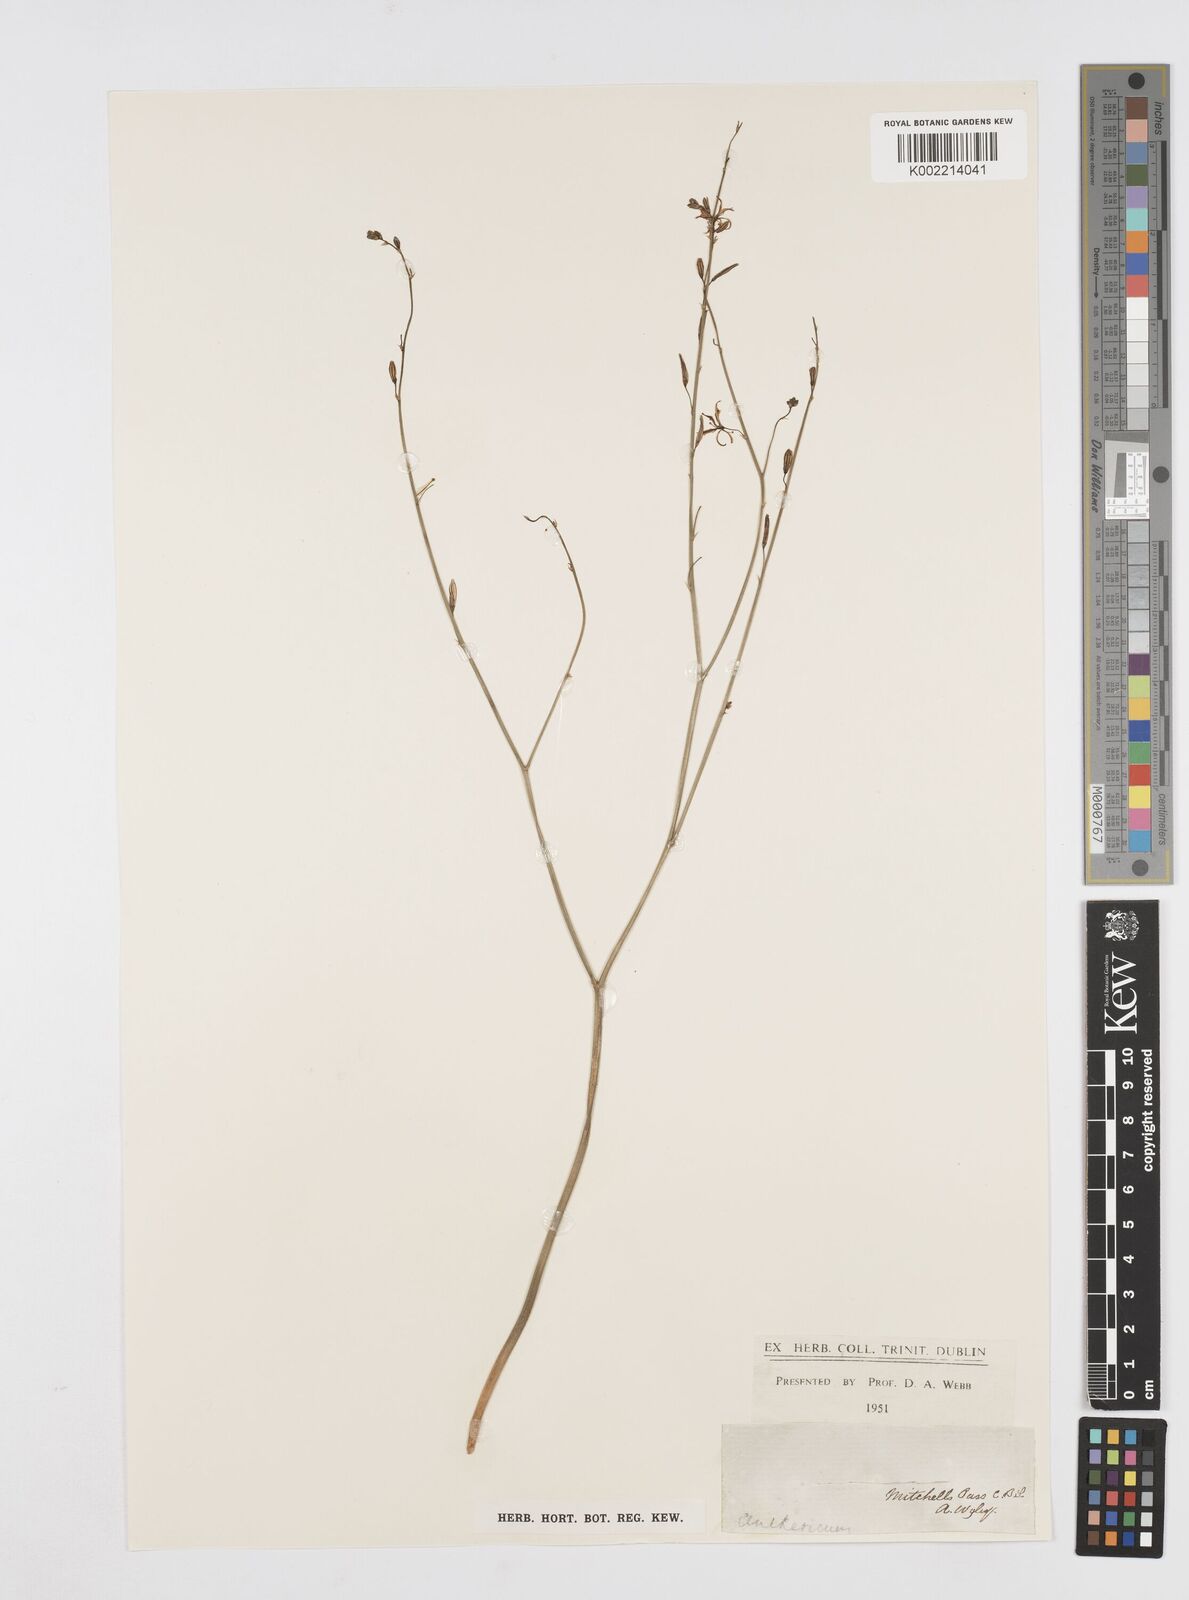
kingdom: Plantae
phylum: Tracheophyta
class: Liliopsida
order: Asparagales
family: Asphodelaceae
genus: Trachyandra
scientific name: Trachyandra
